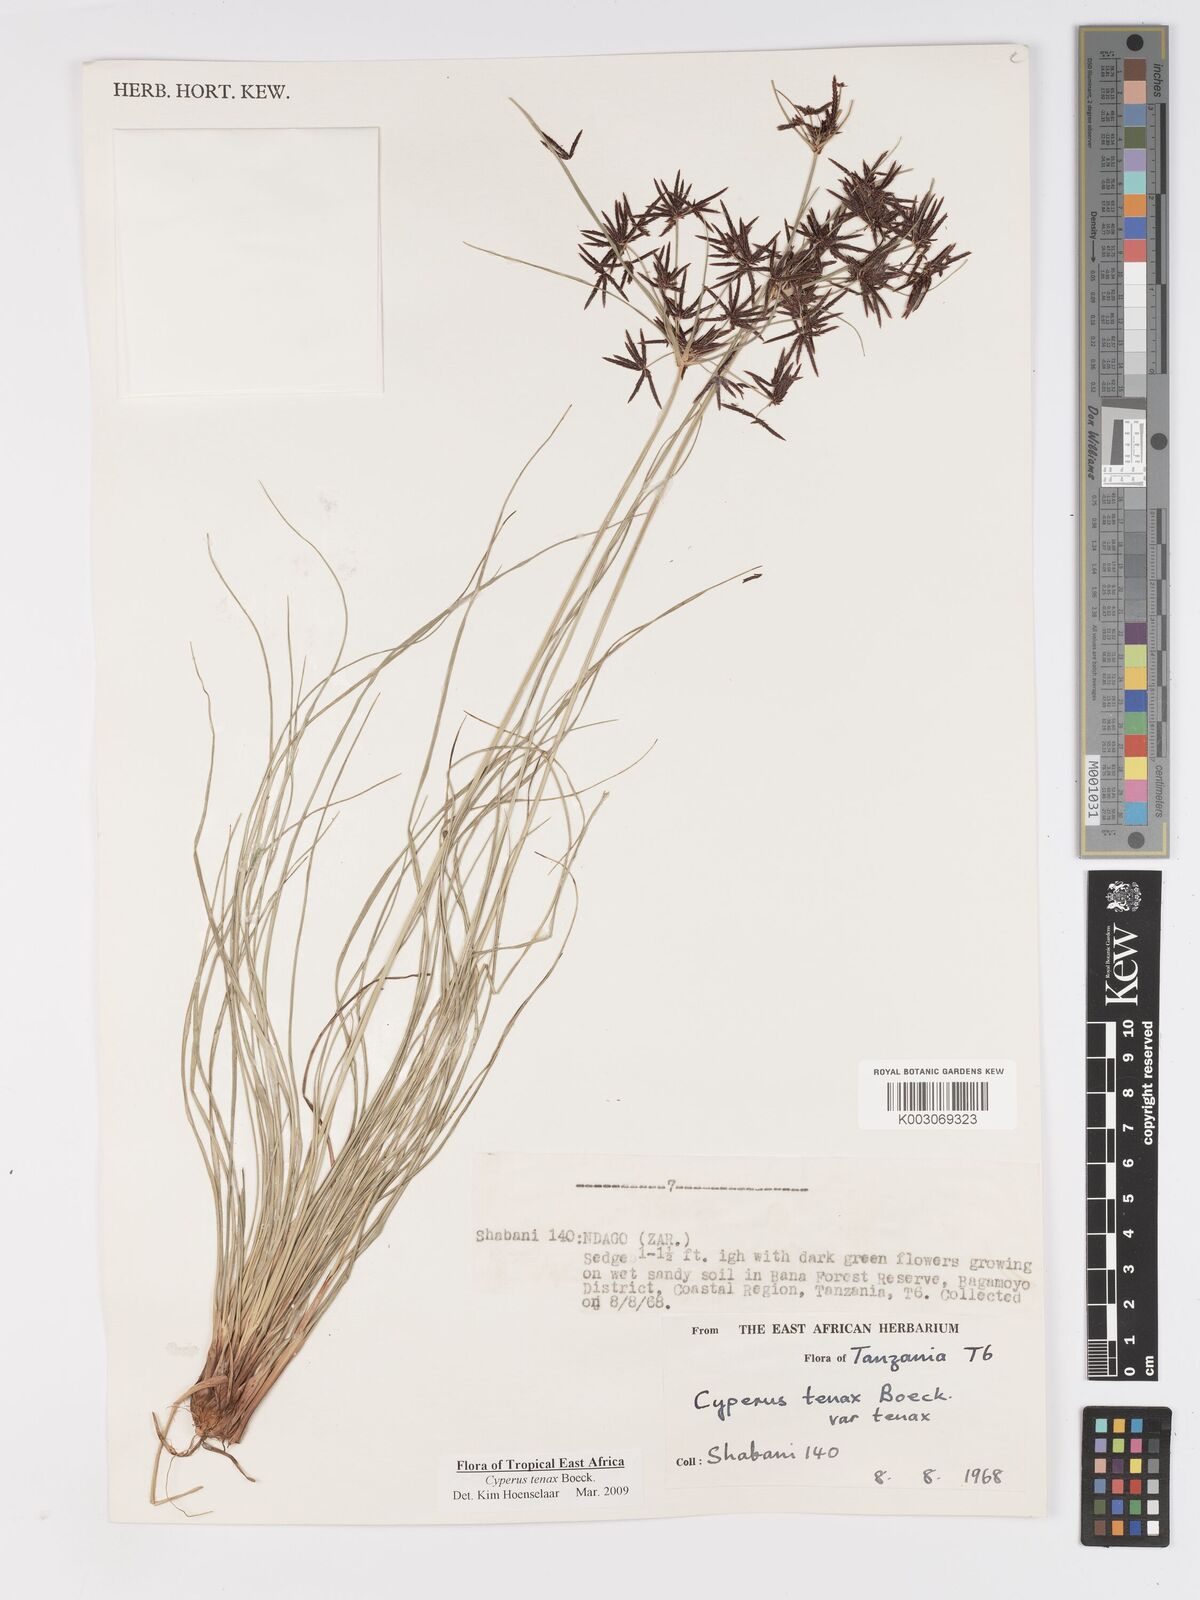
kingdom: Plantae
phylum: Tracheophyta
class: Liliopsida
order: Poales
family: Cyperaceae
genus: Cyperus
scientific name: Cyperus tenax
